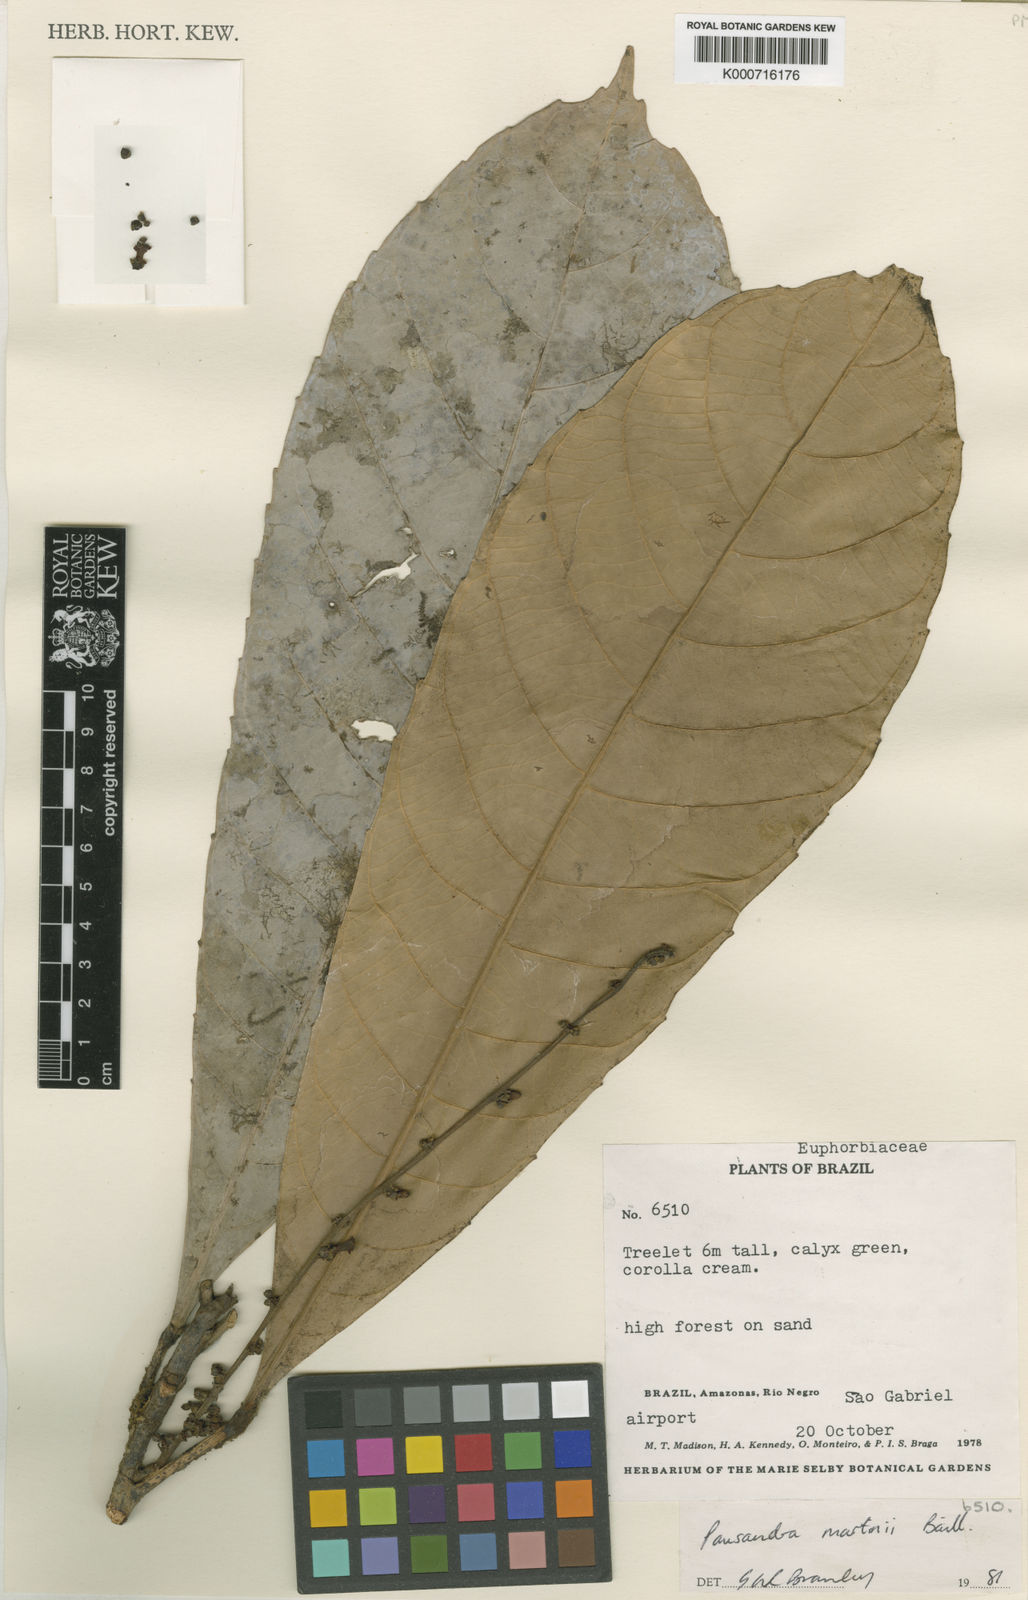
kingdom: Plantae
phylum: Tracheophyta
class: Magnoliopsida
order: Malpighiales
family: Euphorbiaceae
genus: Pausandra
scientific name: Pausandra martini
